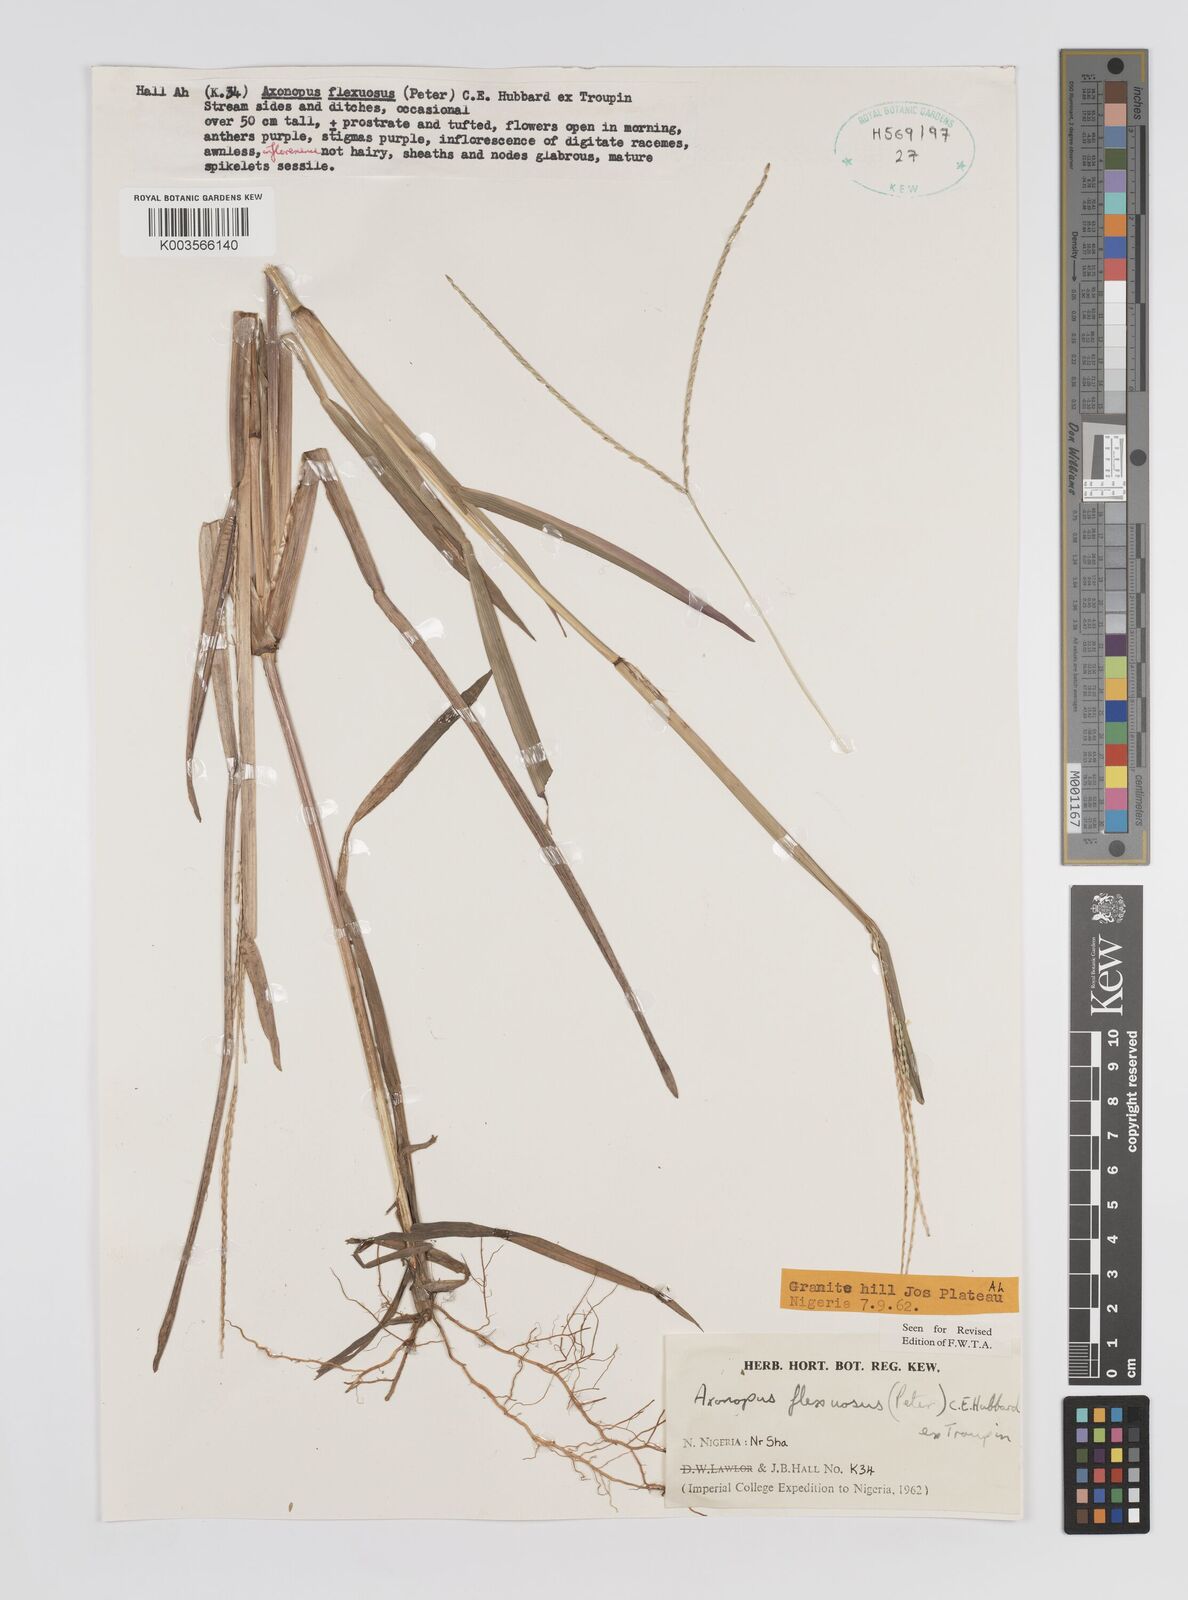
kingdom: Plantae
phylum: Tracheophyta
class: Liliopsida
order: Poales
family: Poaceae
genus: Axonopus
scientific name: Axonopus flexuosus
